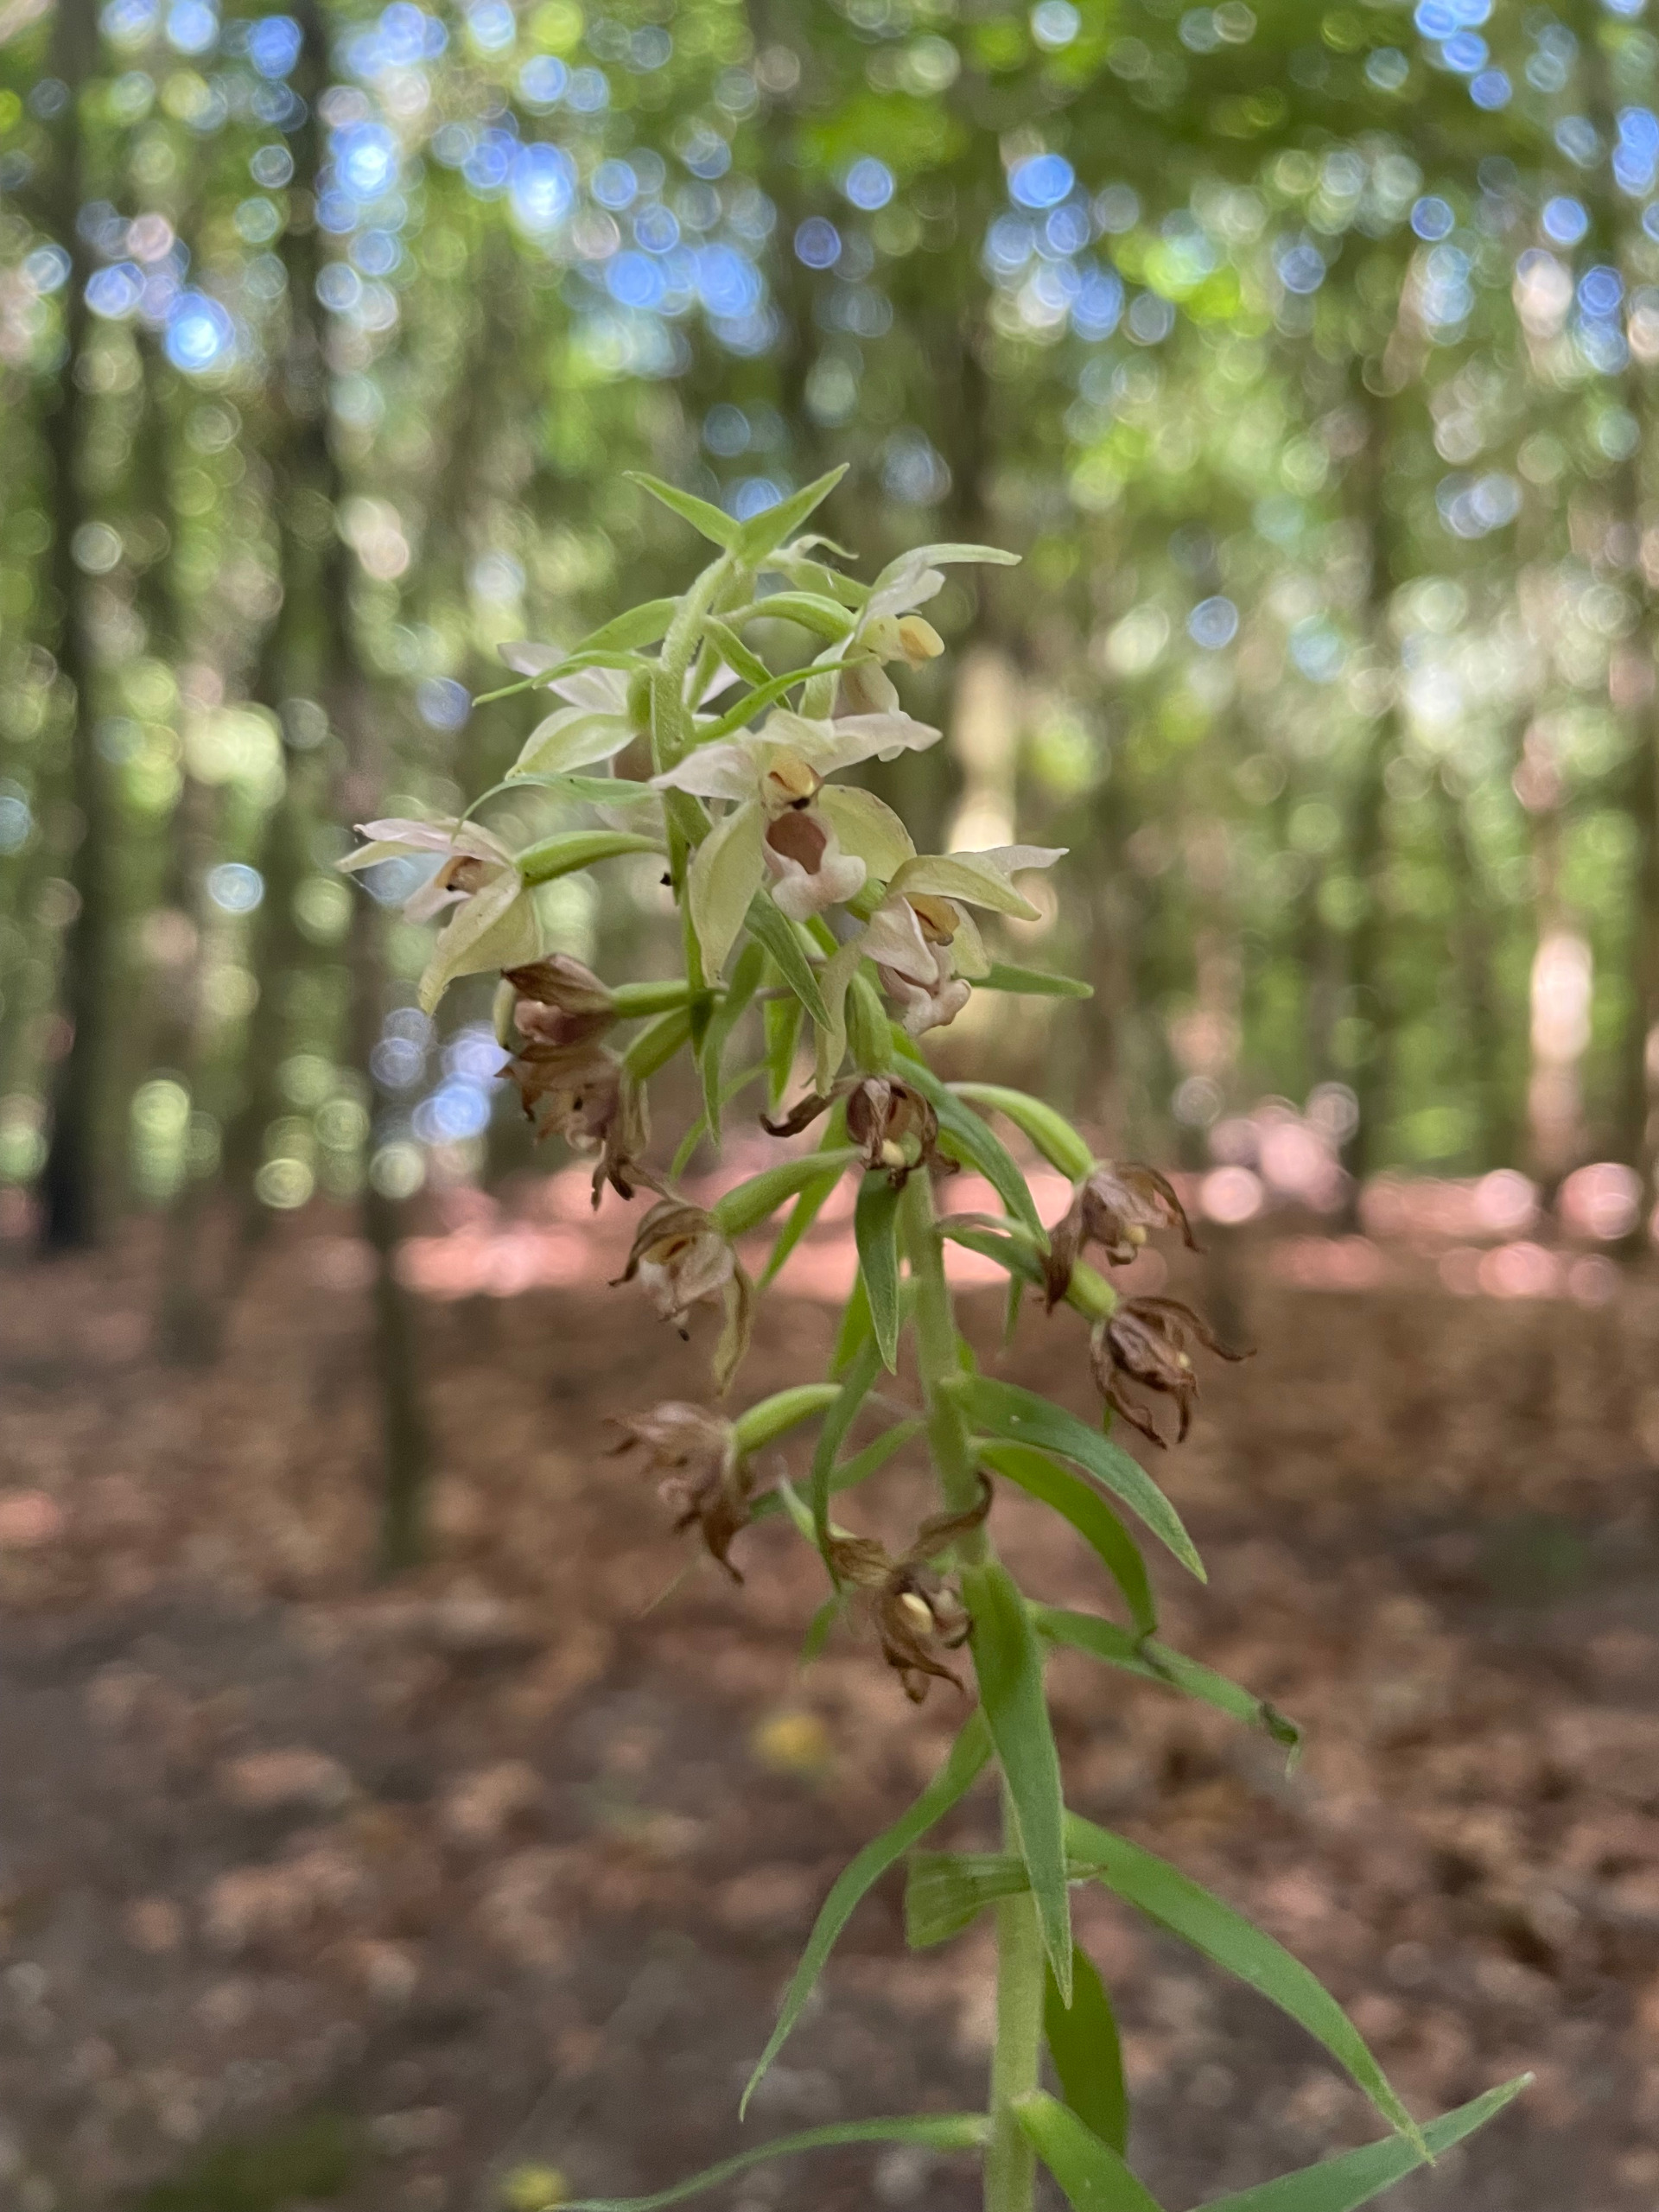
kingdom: Plantae
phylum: Tracheophyta
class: Liliopsida
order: Asparagales
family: Orchidaceae
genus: Epipactis
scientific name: Epipactis helleborine
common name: Skov-hullæbe
